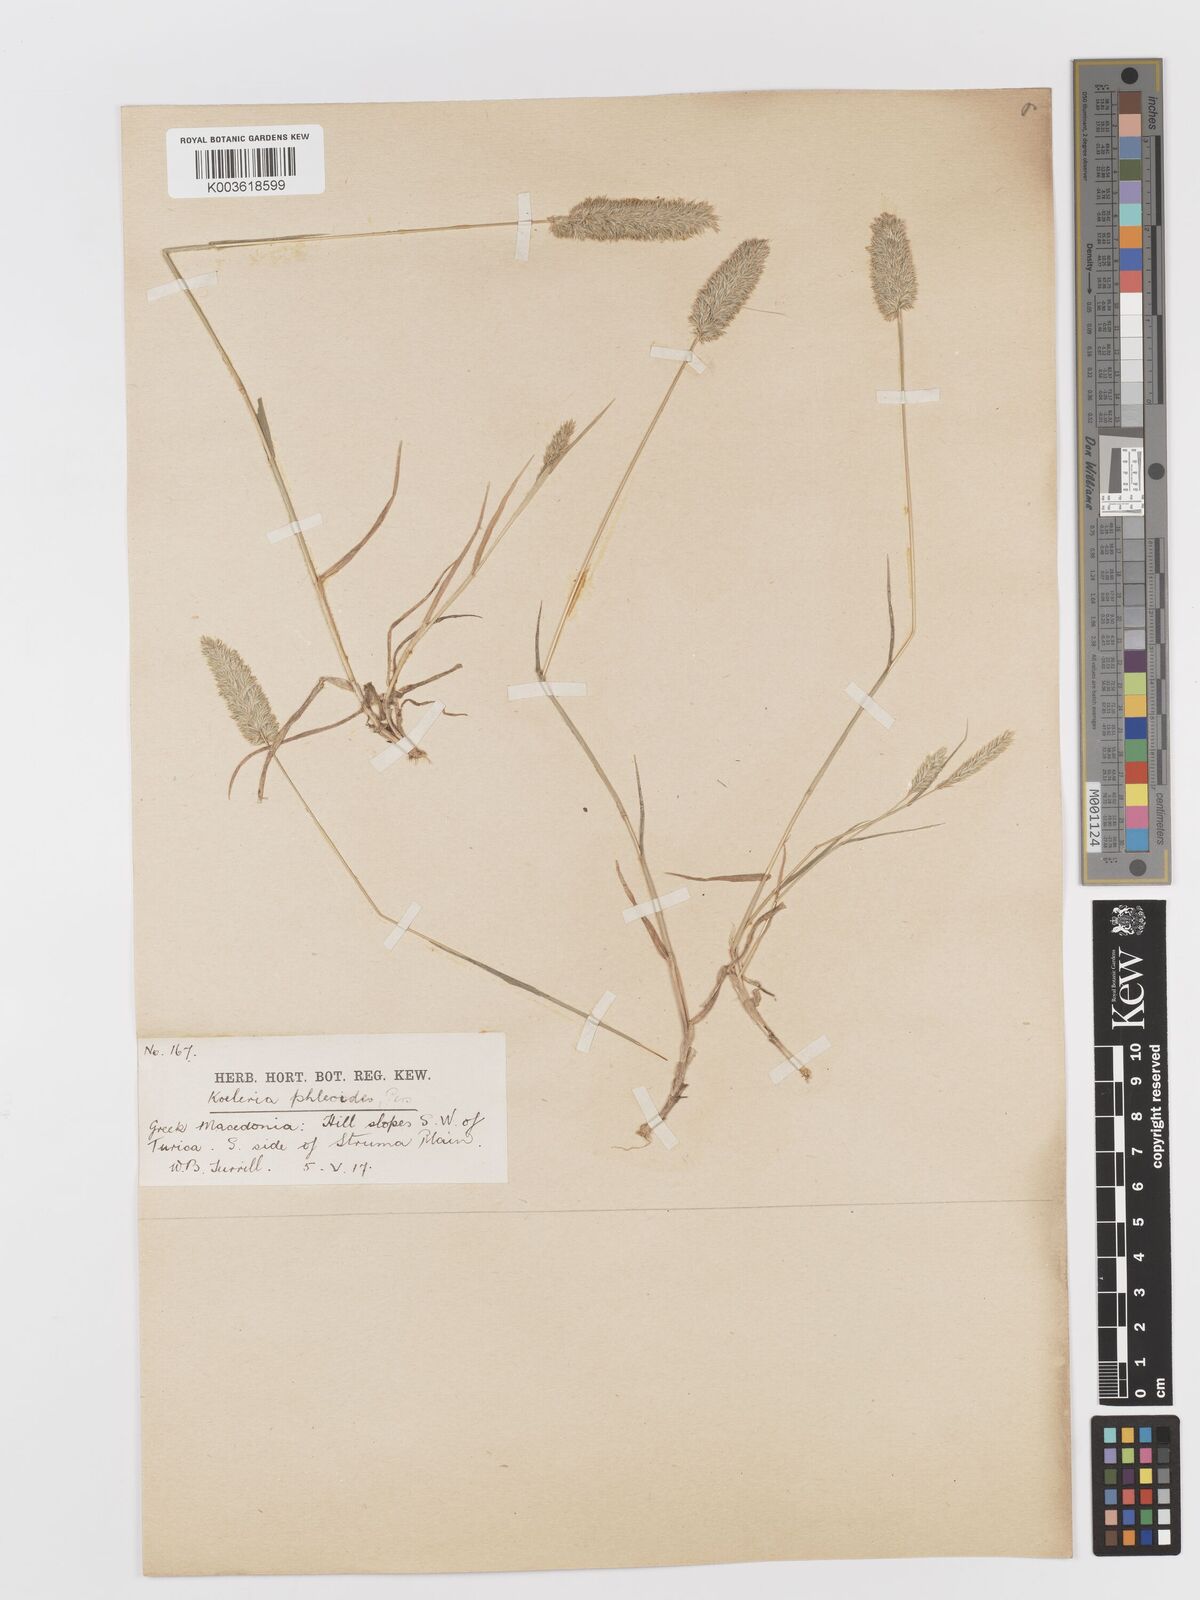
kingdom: Plantae
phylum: Tracheophyta
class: Liliopsida
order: Poales
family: Poaceae
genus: Rostraria
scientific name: Rostraria cristata
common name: Mediterranean hair-grass
